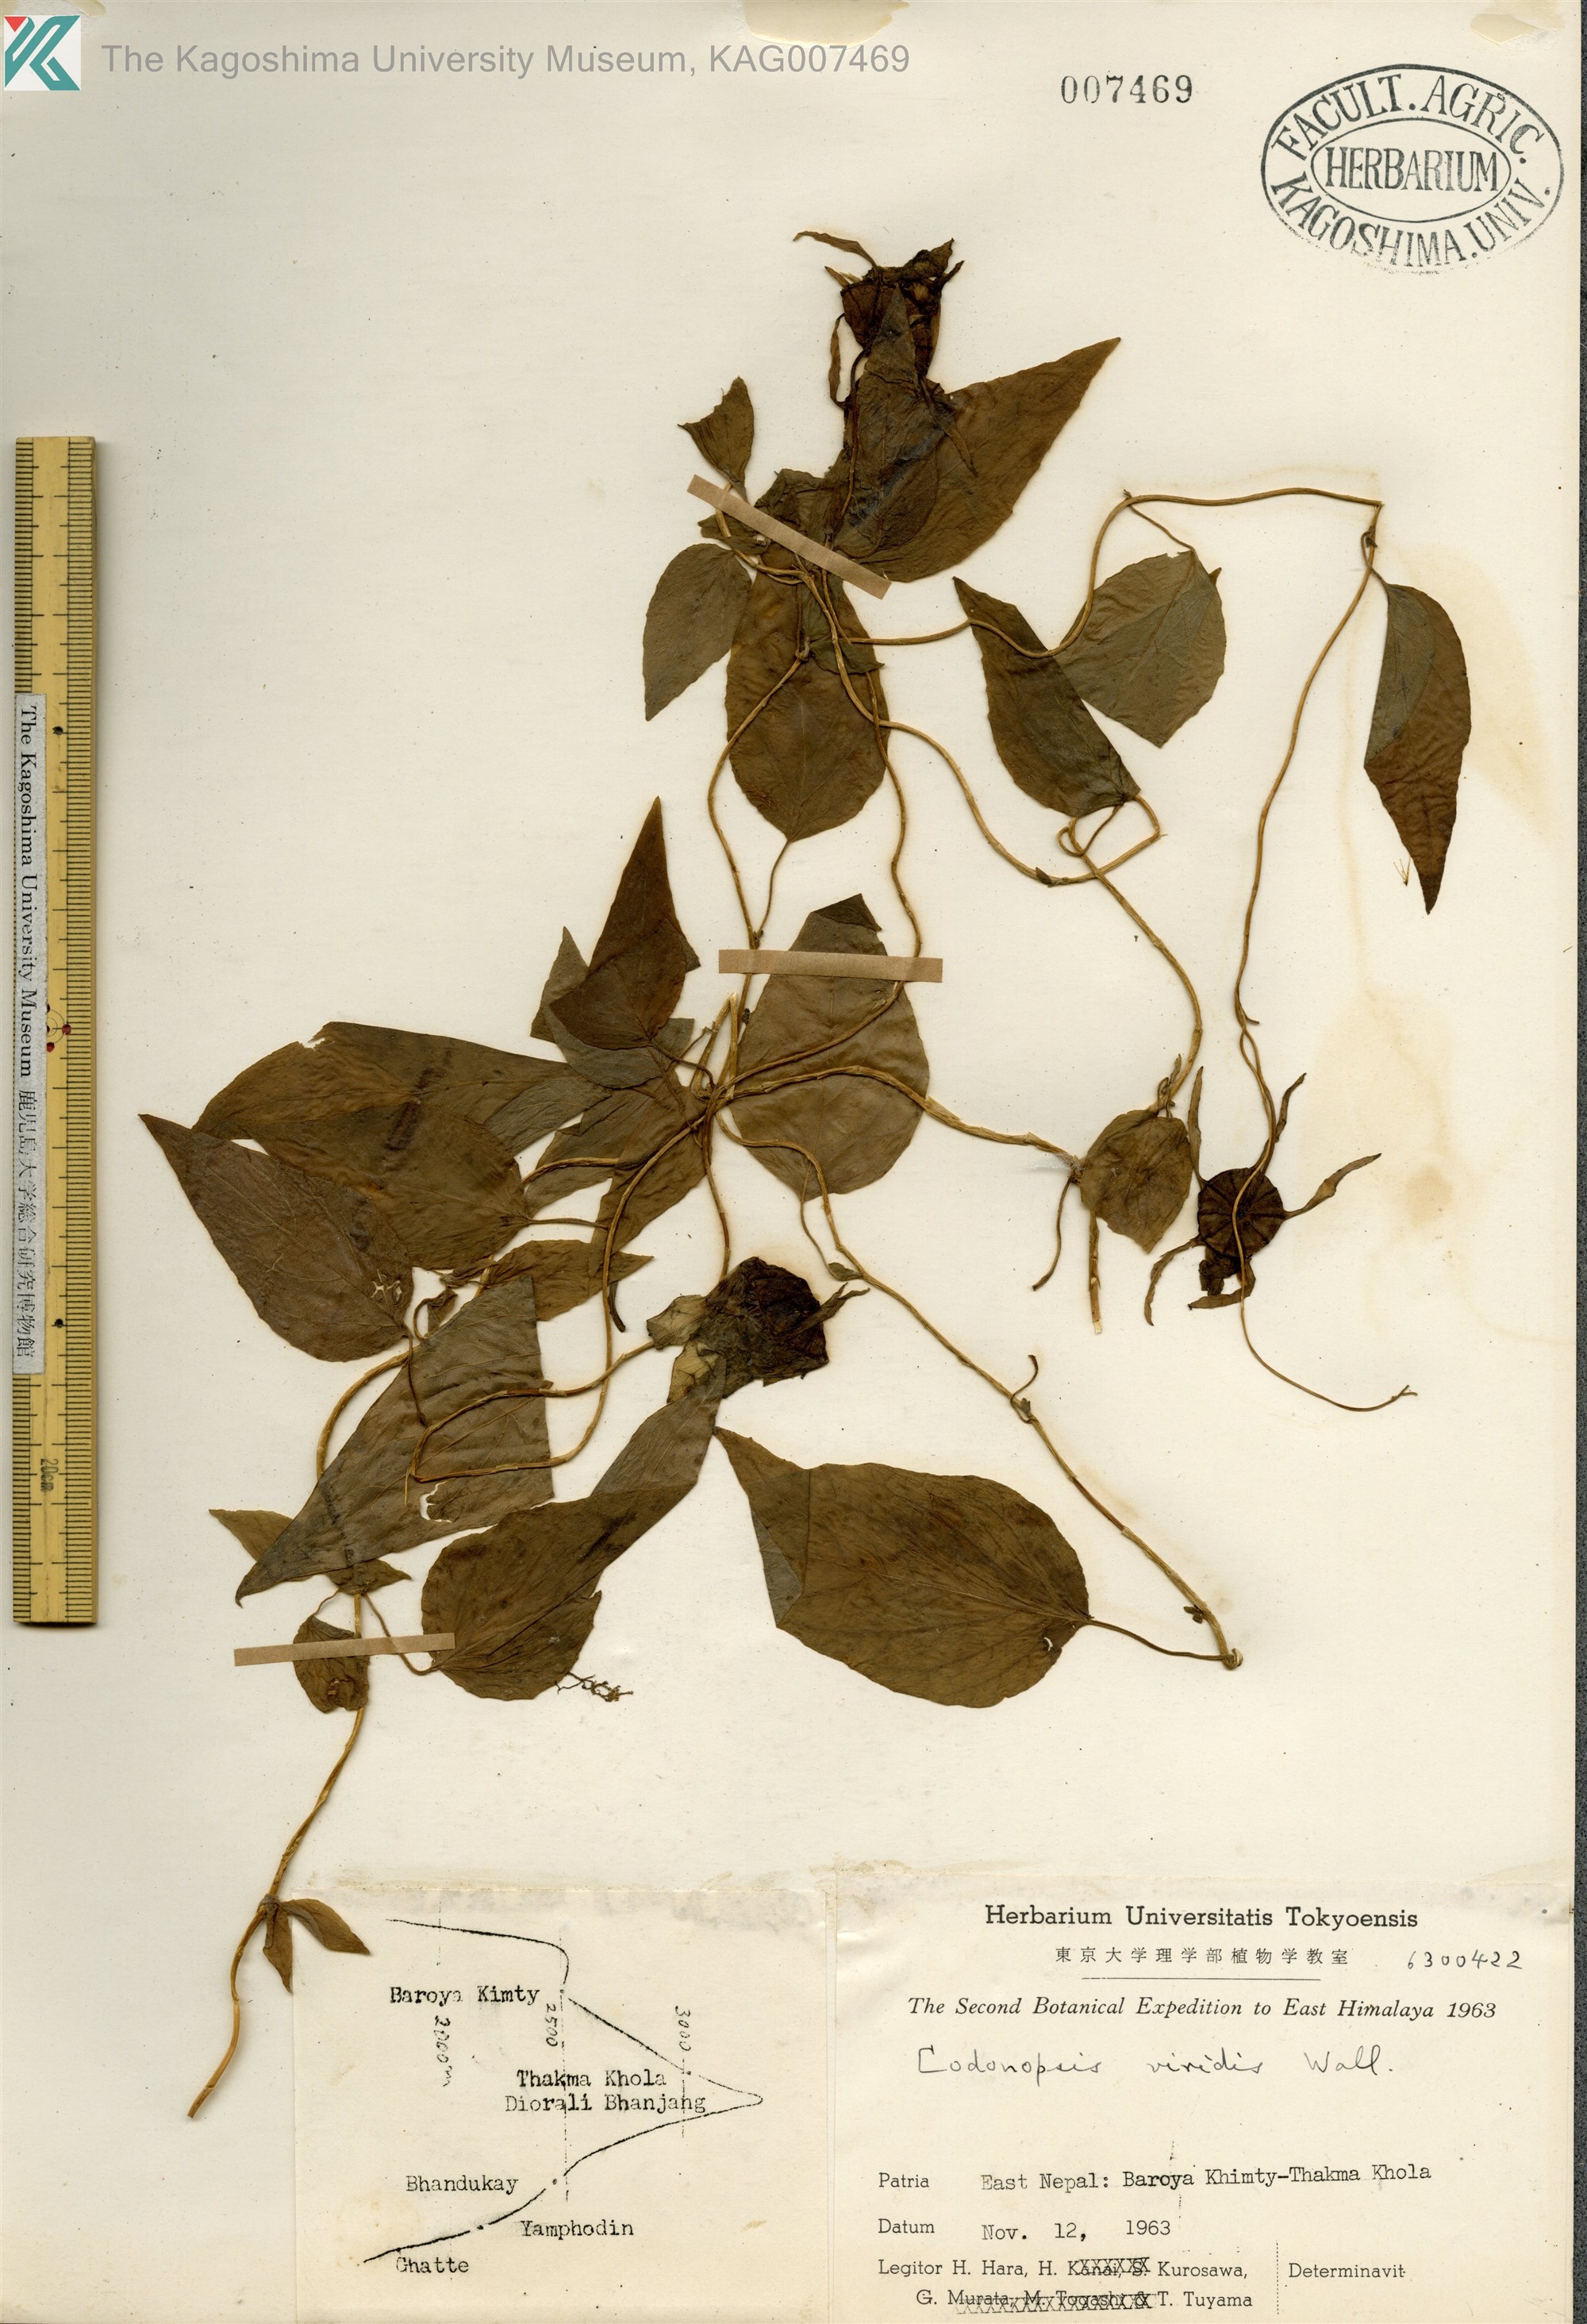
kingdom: Plantae
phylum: Tracheophyta
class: Magnoliopsida
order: Asterales
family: Campanulaceae
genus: Codonopsis
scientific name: Codonopsis viridis
